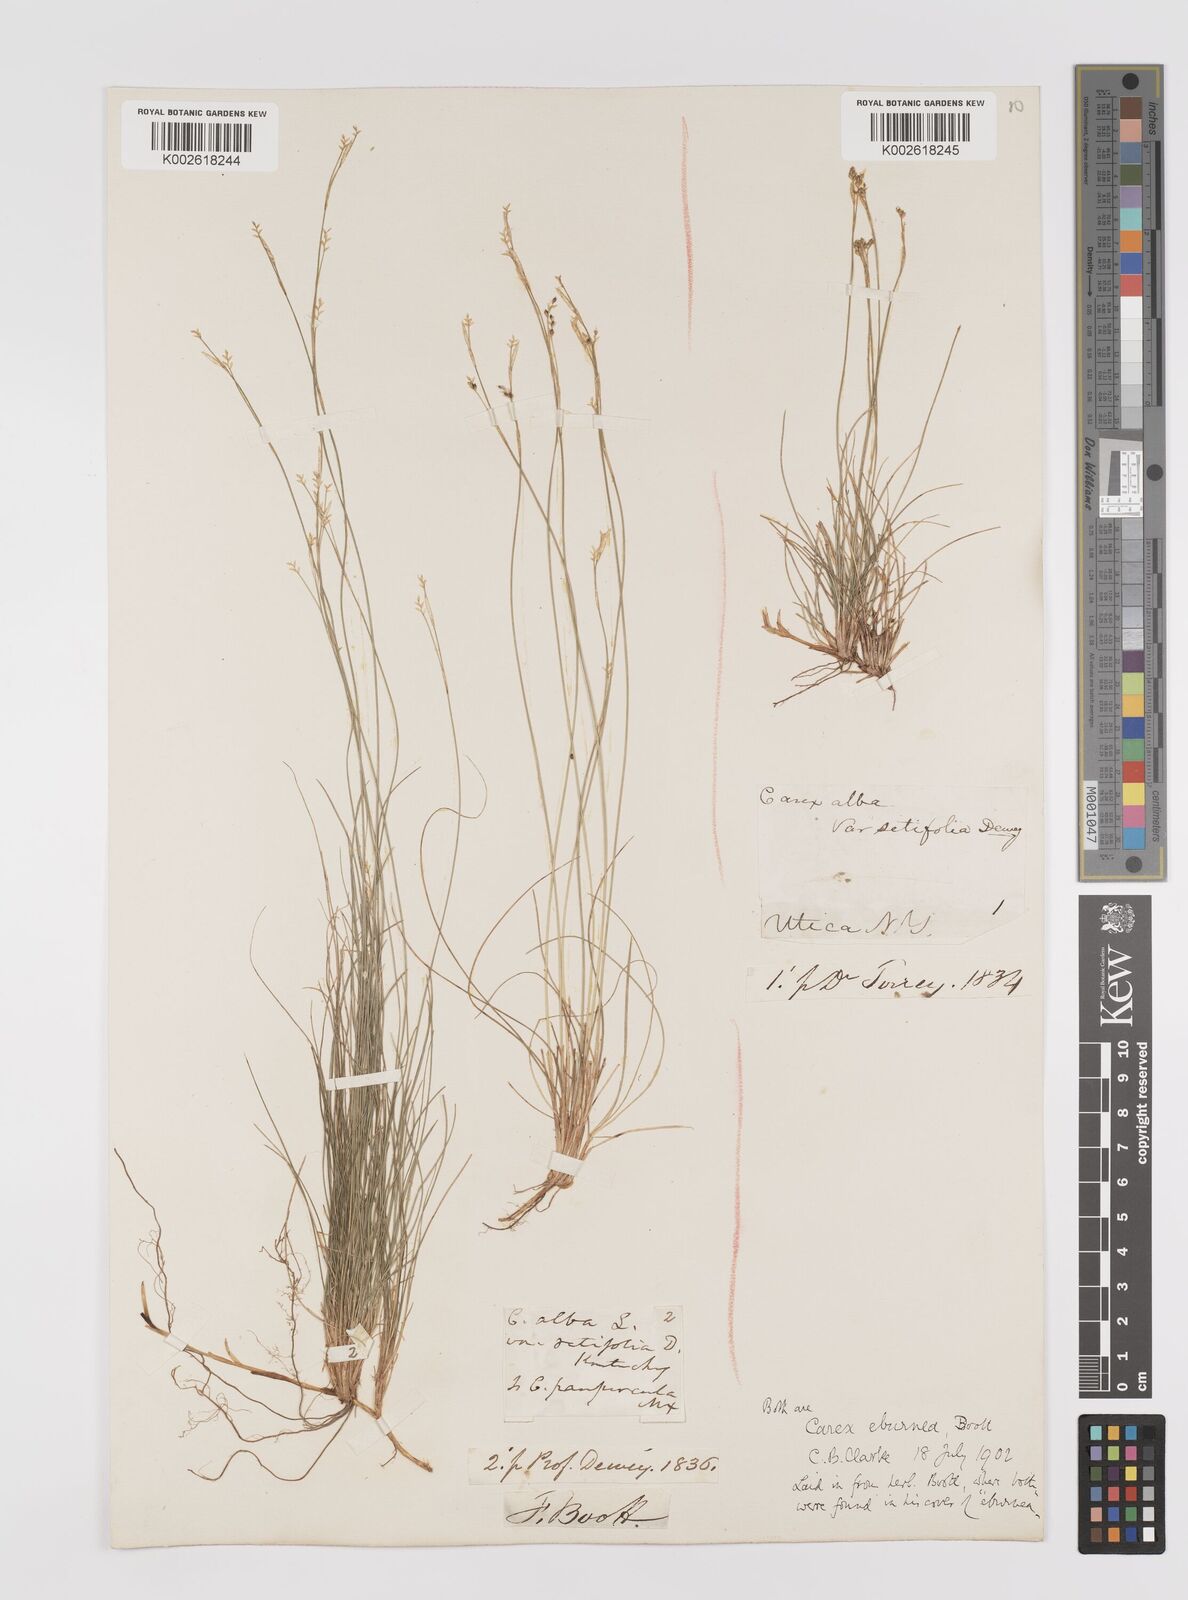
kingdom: Plantae
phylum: Tracheophyta
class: Liliopsida
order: Poales
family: Cyperaceae
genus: Carex
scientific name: Carex eburnea
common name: Bristle-leaved sedge
